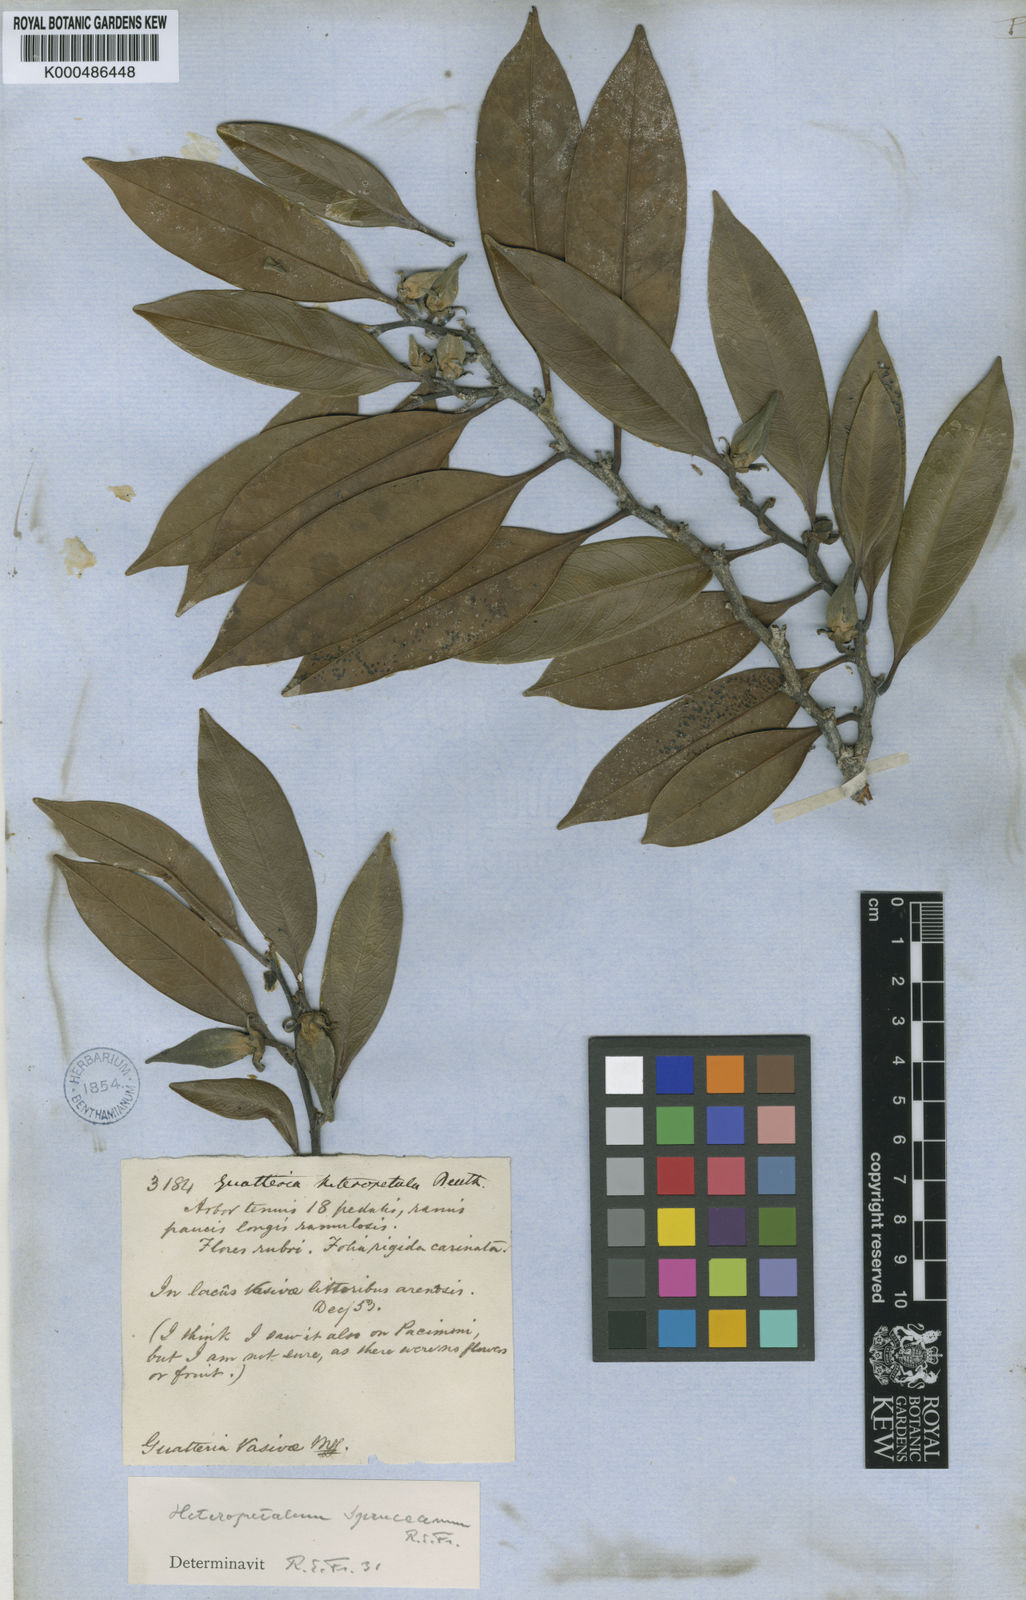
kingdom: Plantae
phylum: Tracheophyta
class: Magnoliopsida
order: Magnoliales
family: Annonaceae
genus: Guatteria
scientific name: Guatteria heteropetala
